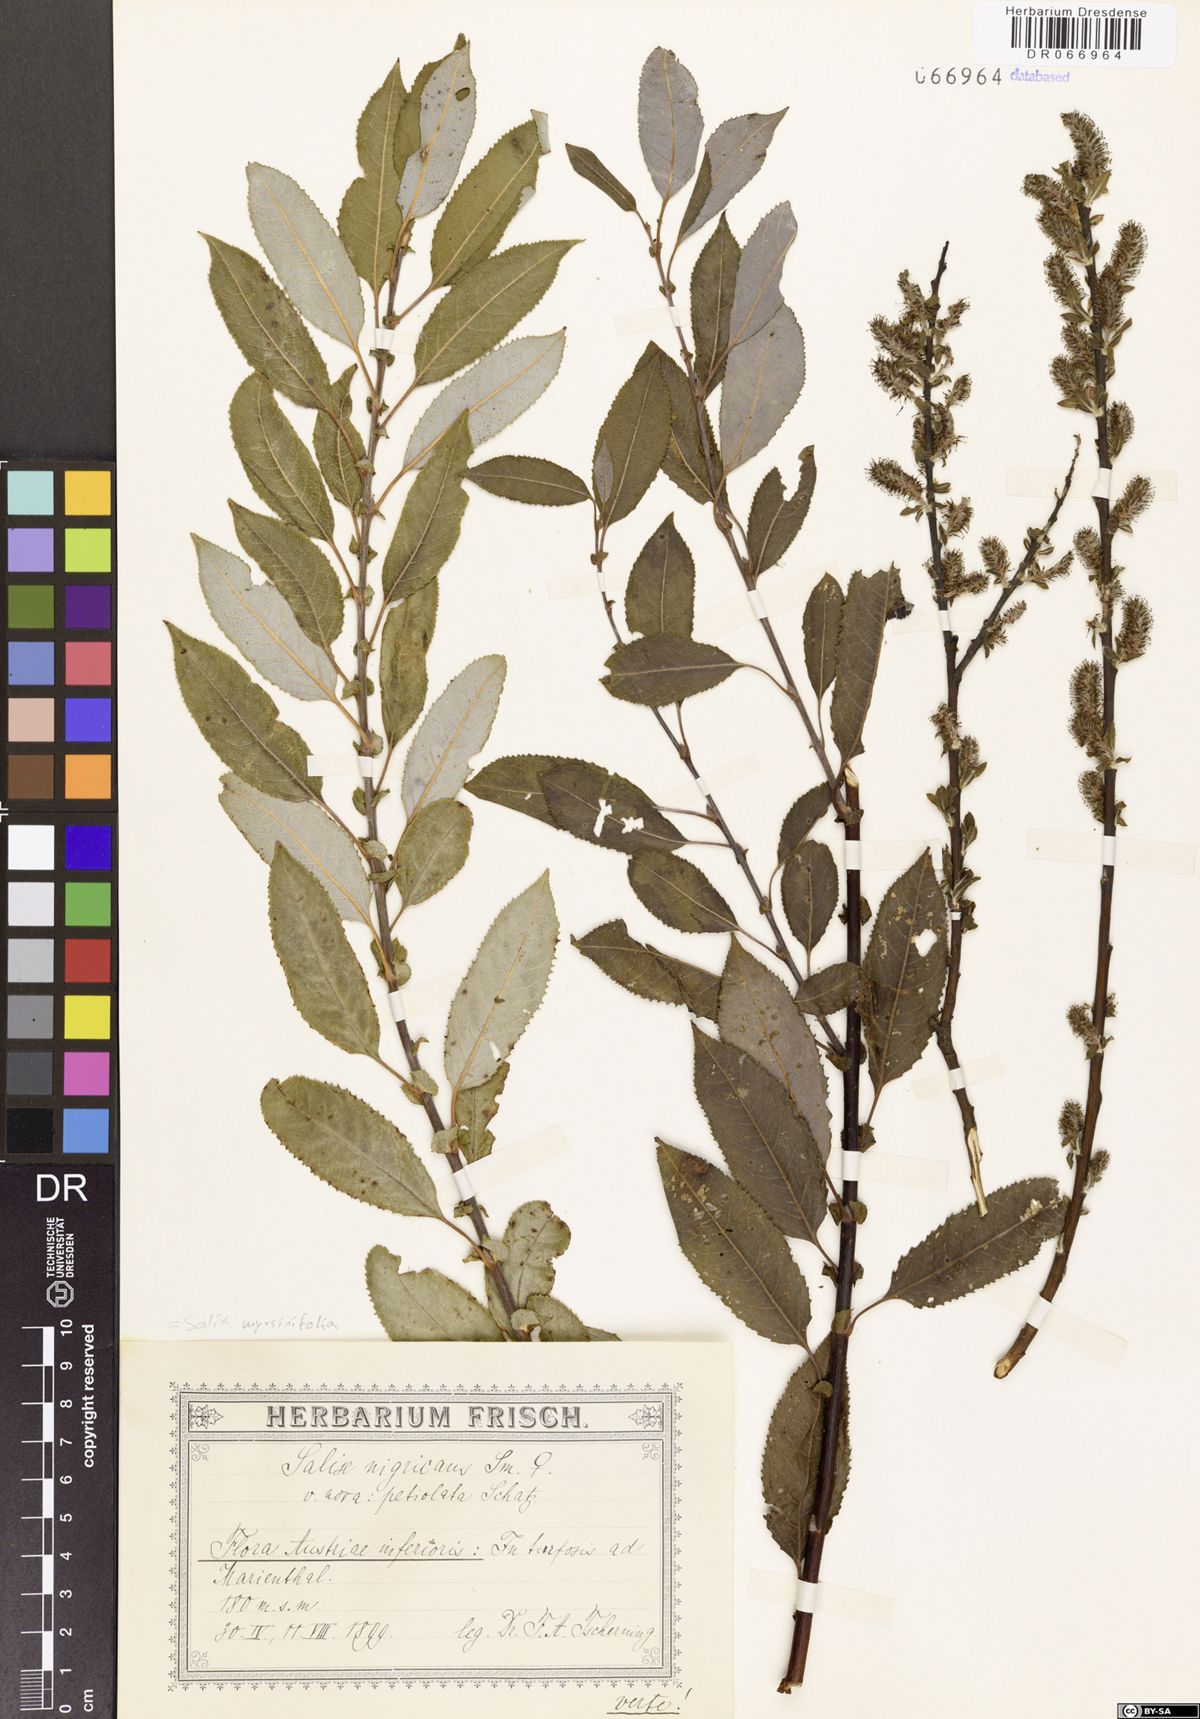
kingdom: Plantae
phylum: Tracheophyta
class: Magnoliopsida
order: Malpighiales
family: Salicaceae
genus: Salix
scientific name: Salix myrsinifolia
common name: Dark-leaved willow
